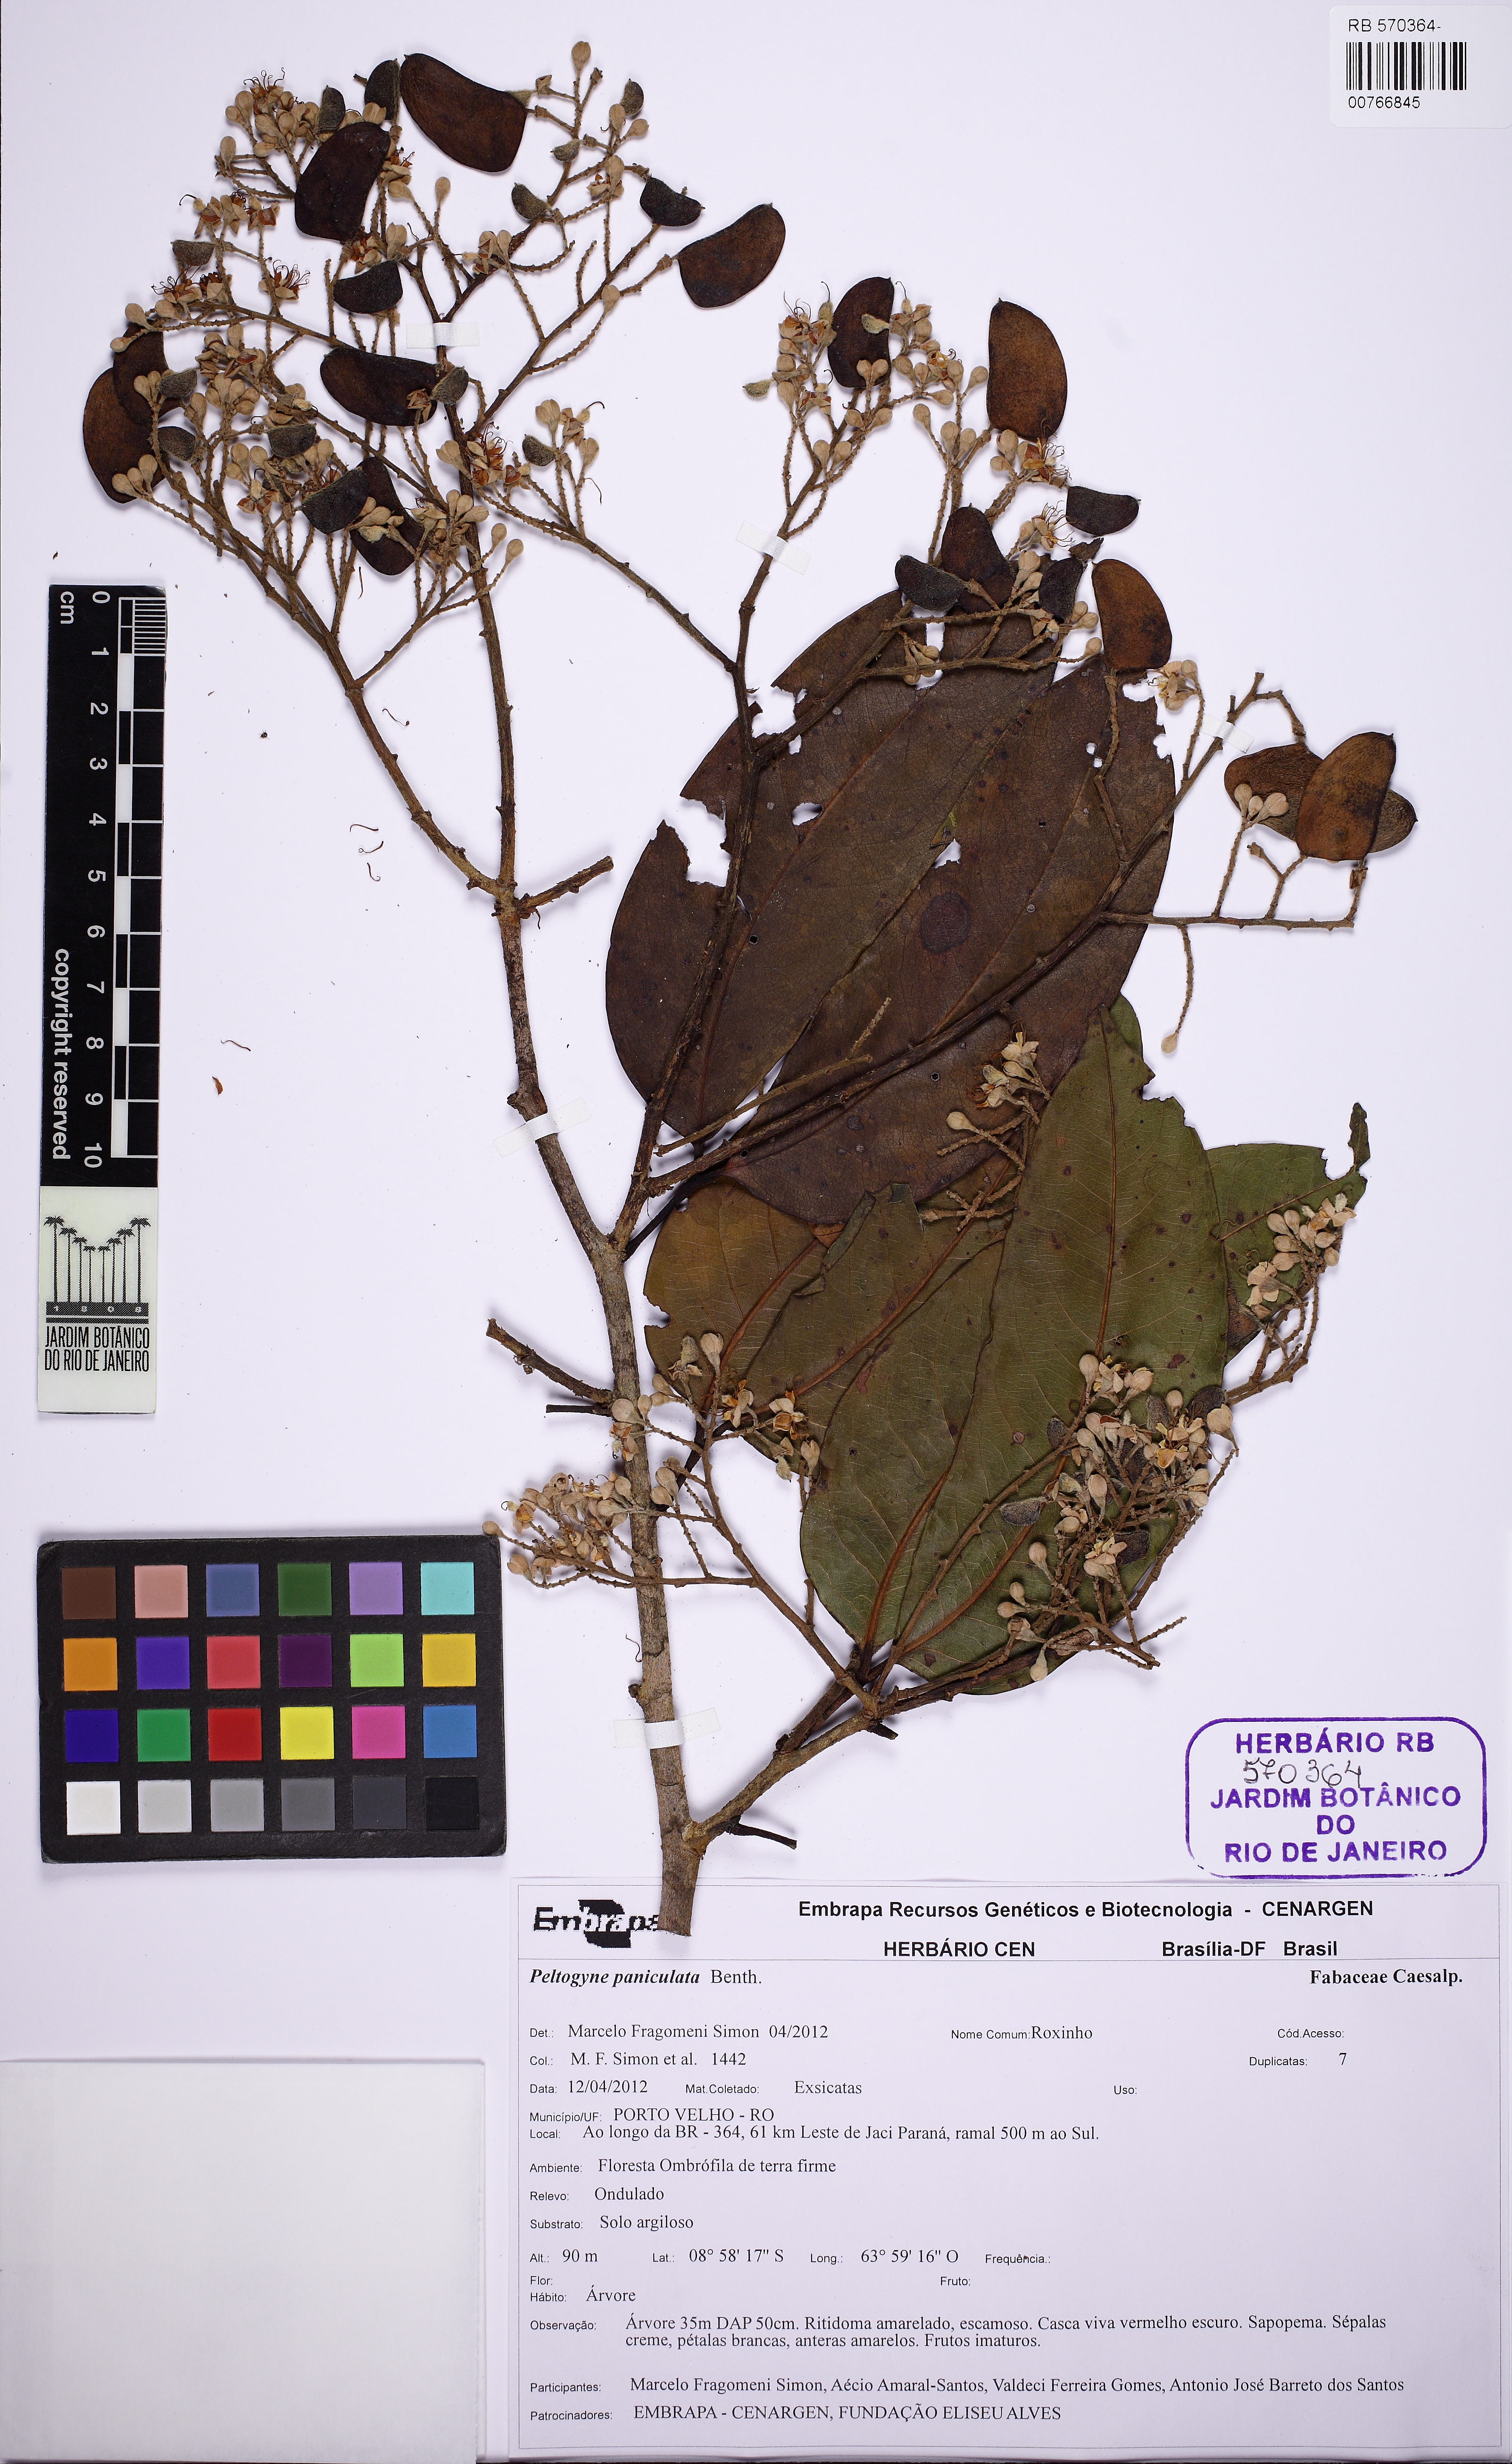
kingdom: Plantae
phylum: Tracheophyta
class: Magnoliopsida
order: Fabales
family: Fabaceae
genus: Peltogyne
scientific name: Peltogyne paniculata
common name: Purpleheart
